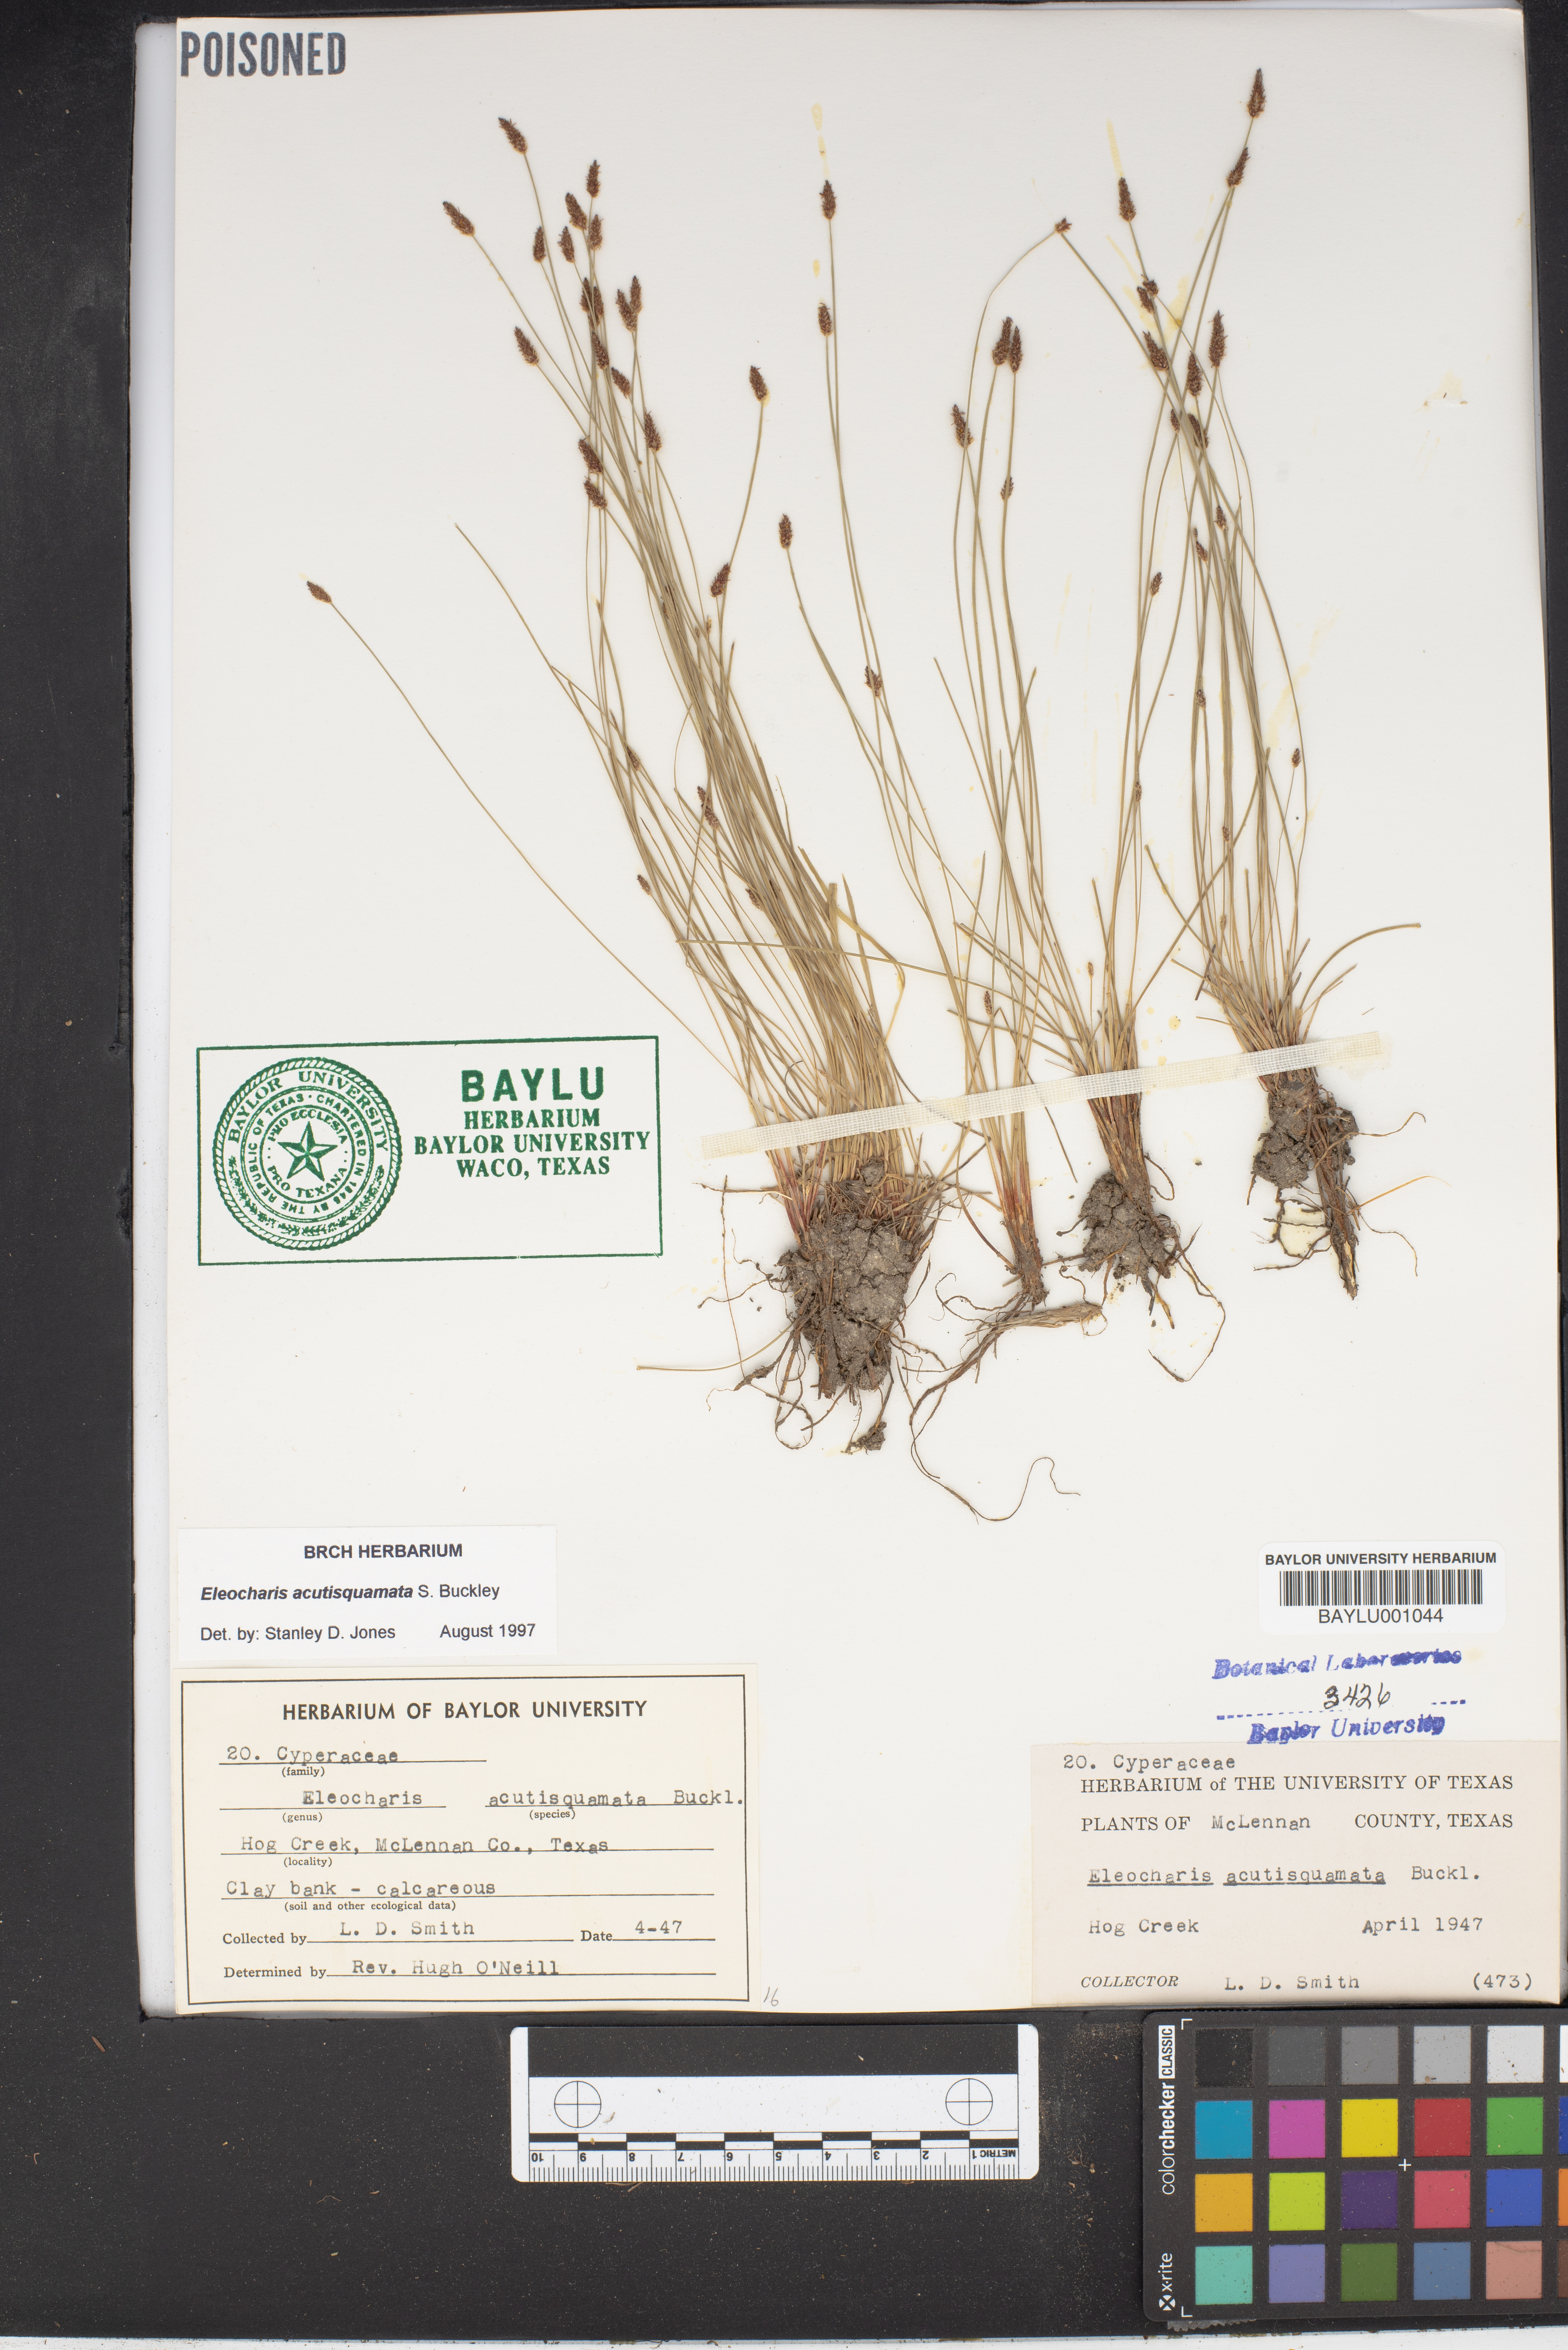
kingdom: Plantae
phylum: Tracheophyta
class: Liliopsida
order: Poales
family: Cyperaceae
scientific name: Cyperaceae
